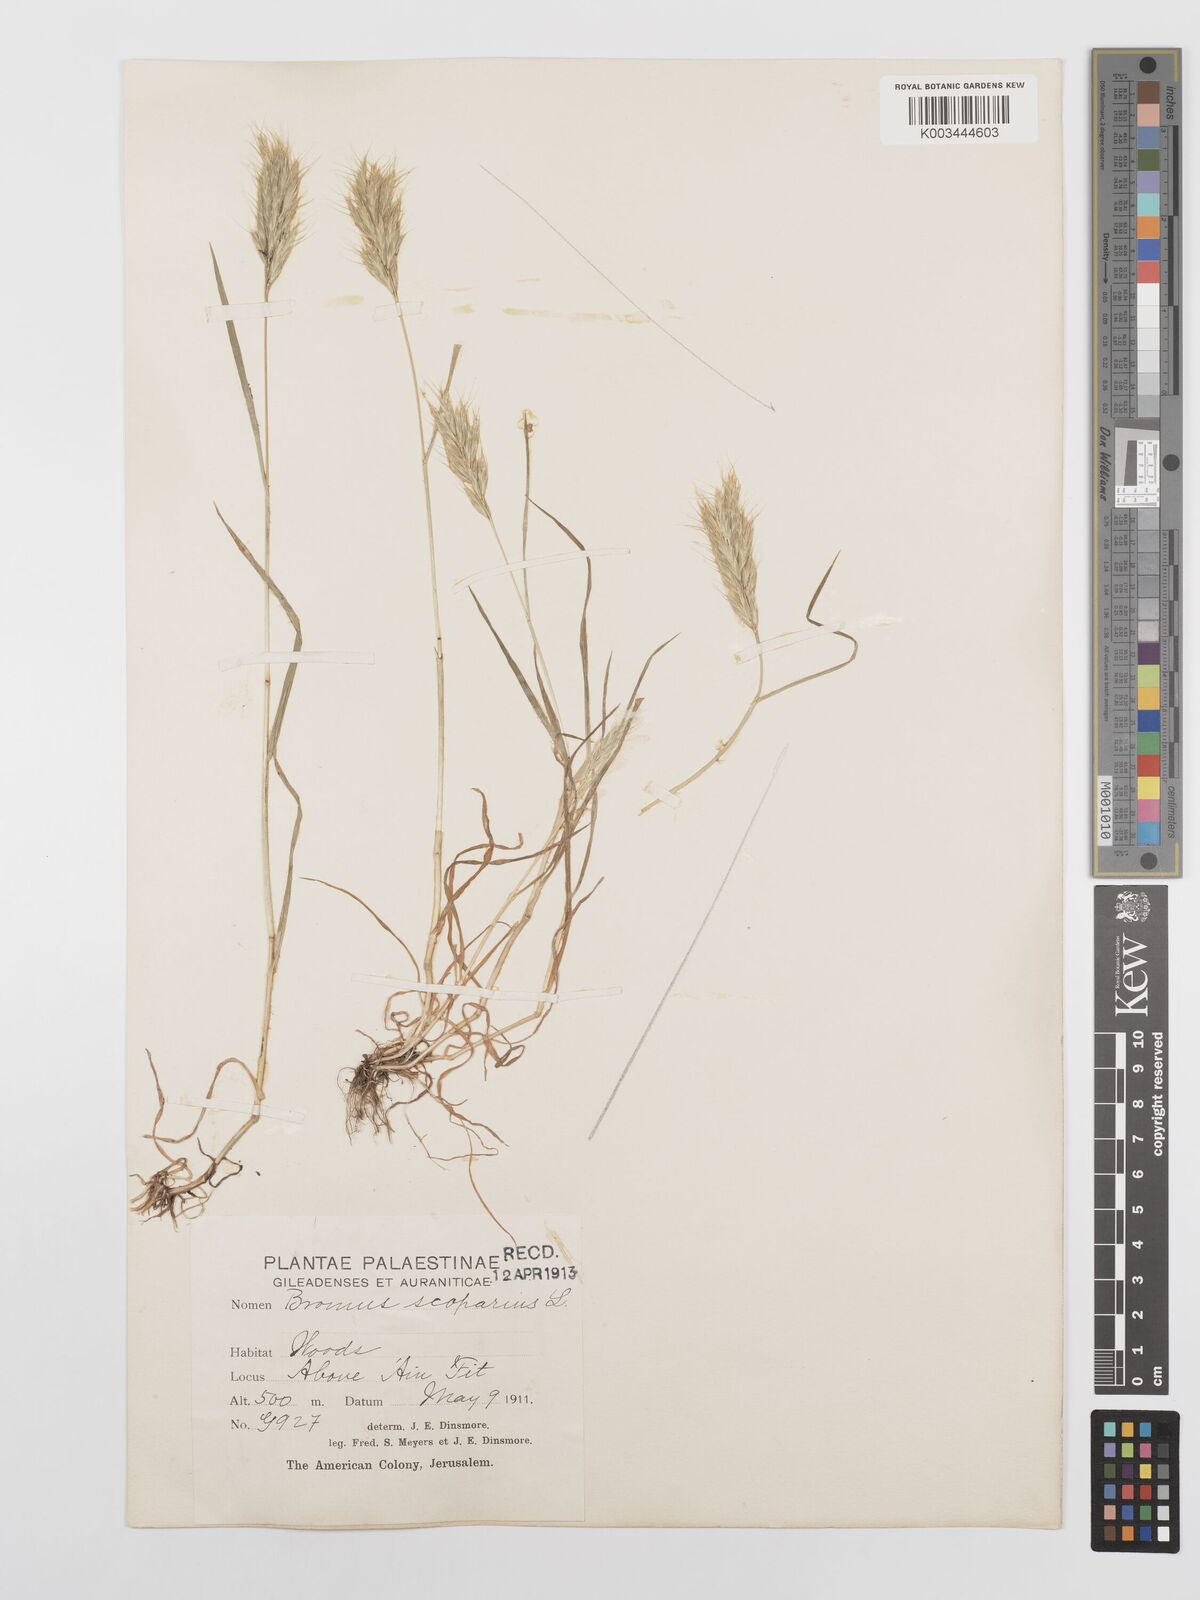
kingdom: Plantae
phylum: Tracheophyta
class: Liliopsida
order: Poales
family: Poaceae
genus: Bromus
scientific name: Bromus scoparius
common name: Broom brome
